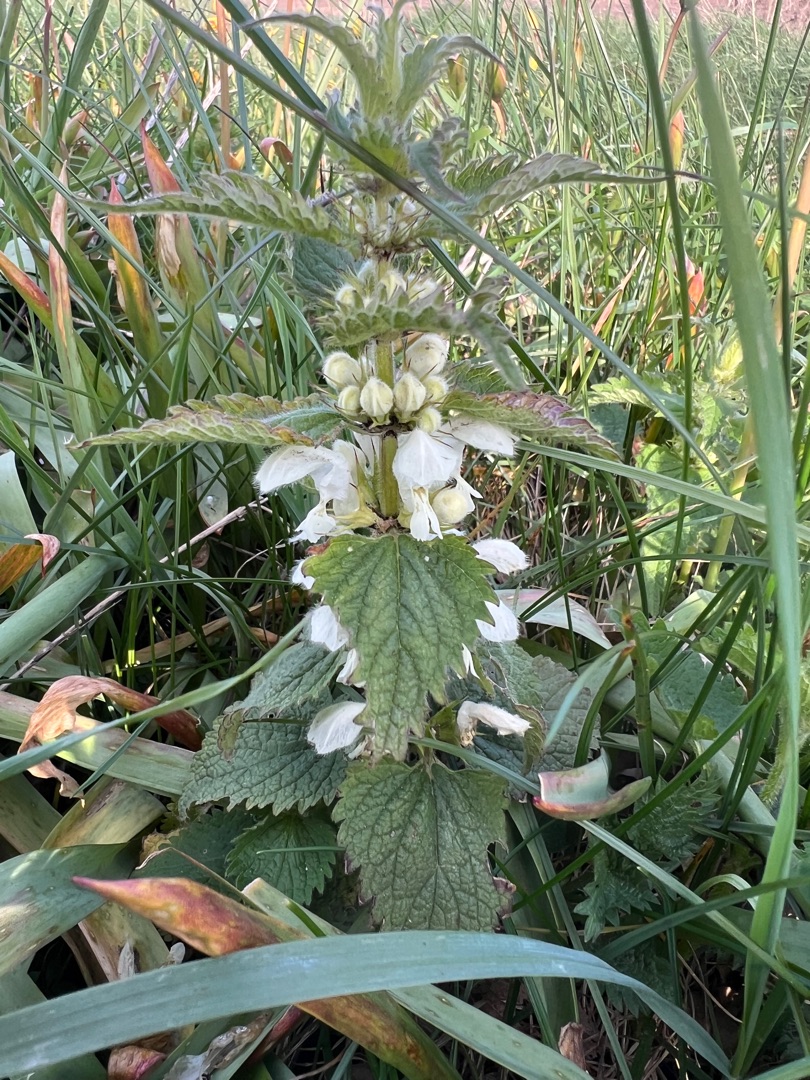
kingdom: Plantae
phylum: Tracheophyta
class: Magnoliopsida
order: Lamiales
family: Lamiaceae
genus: Lamium
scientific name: Lamium album
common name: Døvnælde
